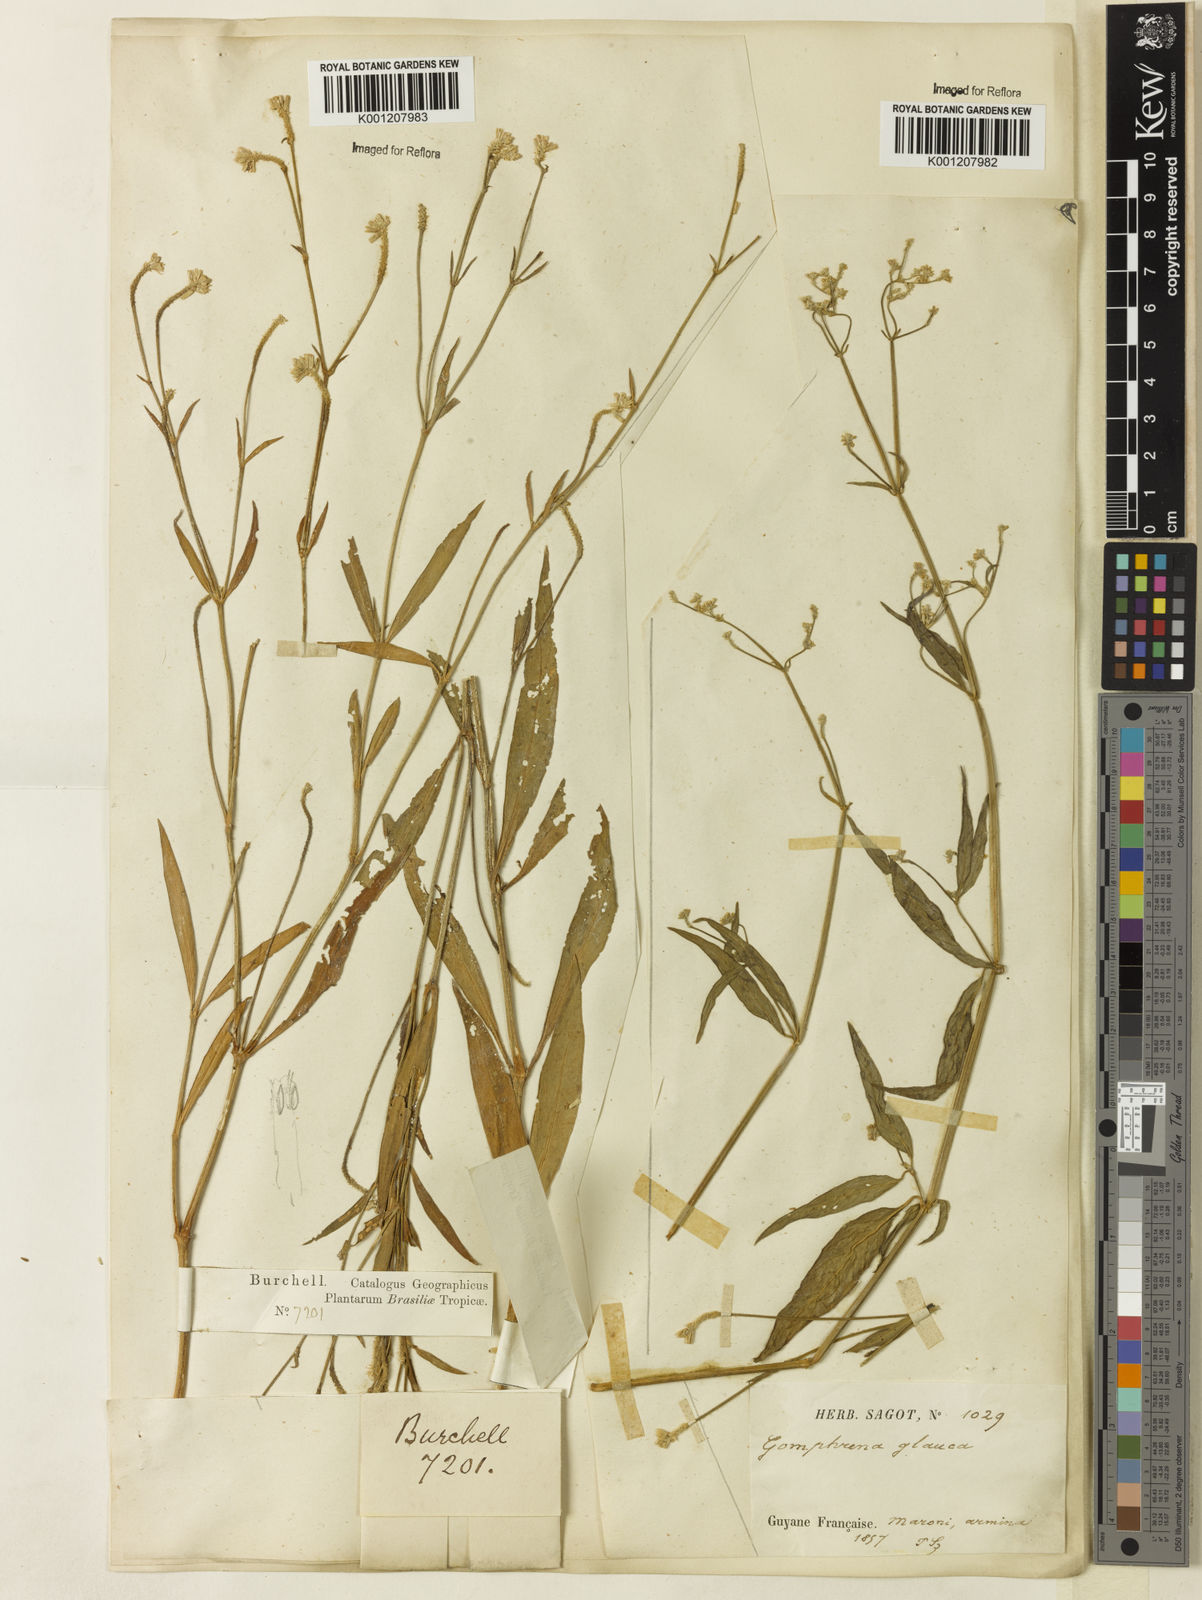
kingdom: Plantae
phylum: Tracheophyta
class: Magnoliopsida
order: Caryophyllales
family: Amaranthaceae
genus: Pfaffia
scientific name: Pfaffia
